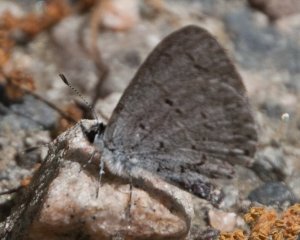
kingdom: Animalia
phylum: Arthropoda
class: Insecta
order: Lepidoptera
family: Lycaenidae
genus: Celastrina
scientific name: Celastrina
